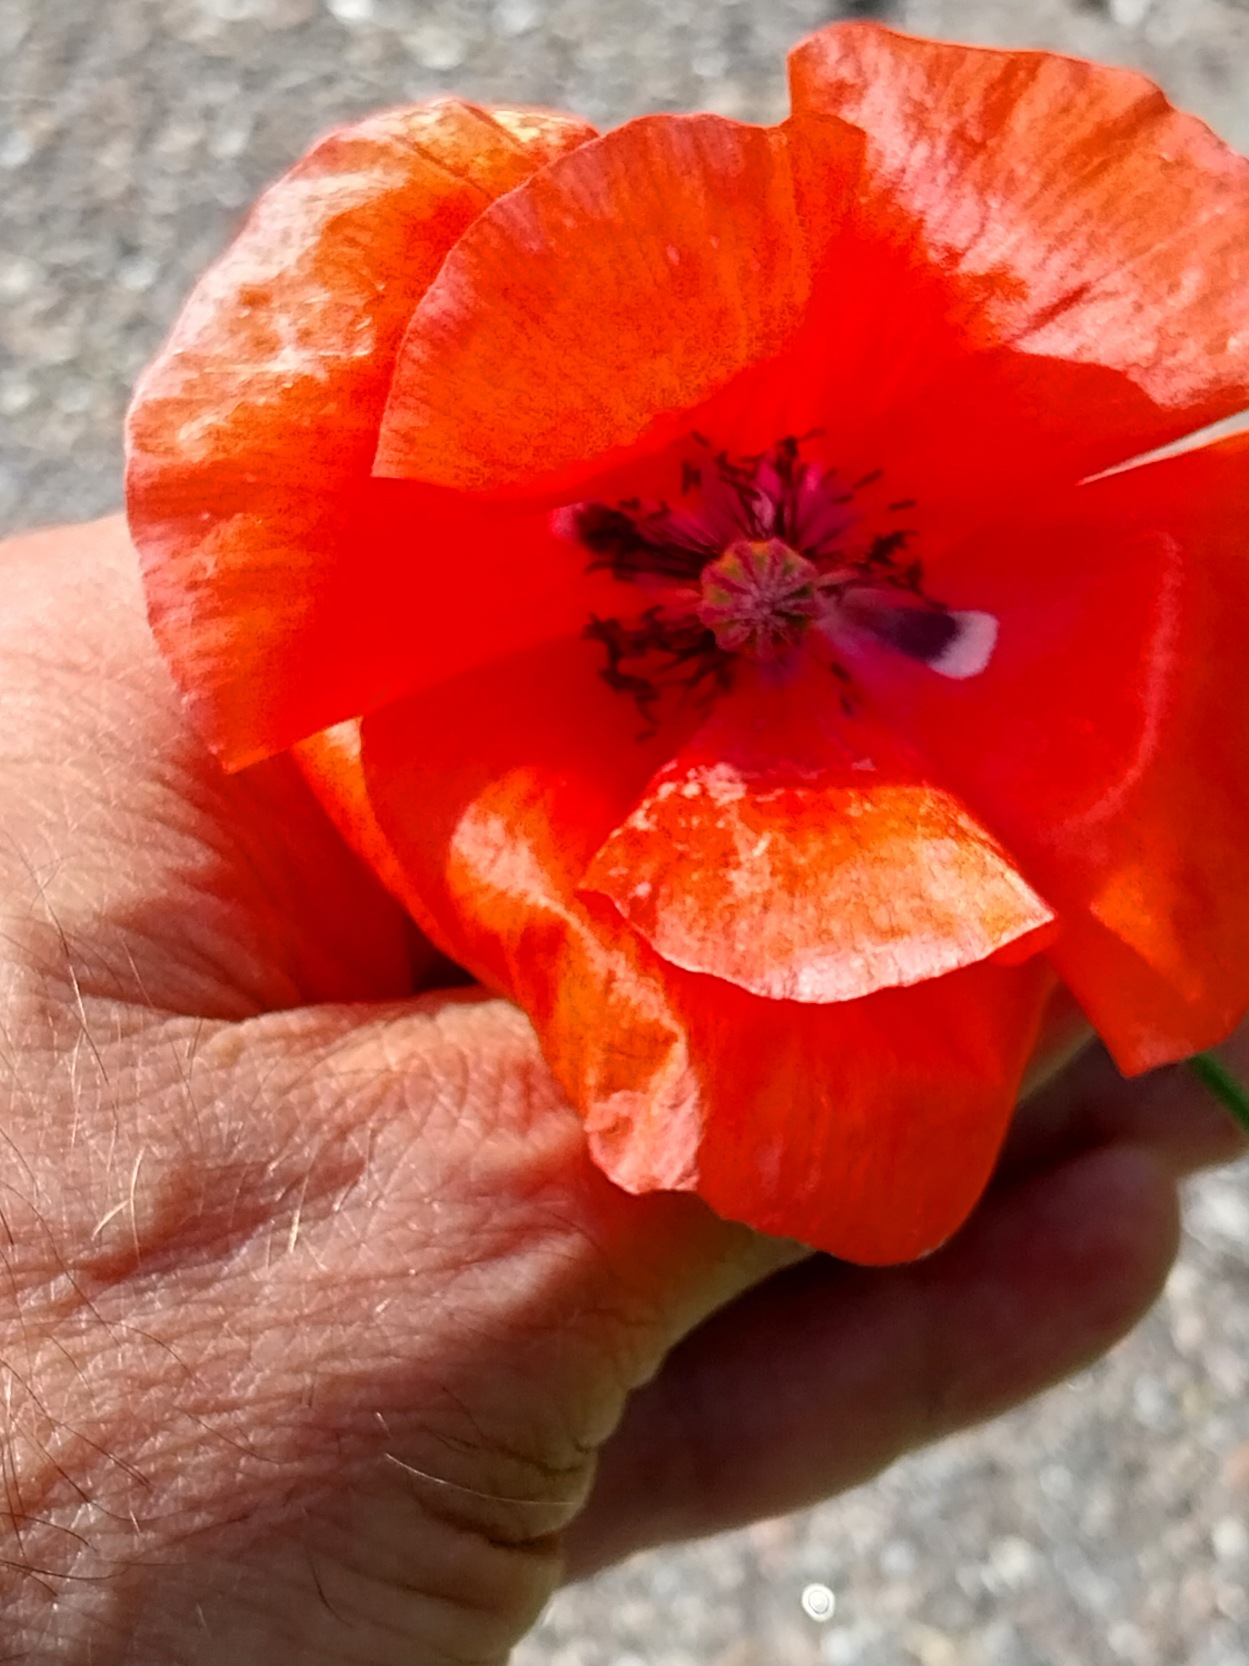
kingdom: Plantae
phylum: Tracheophyta
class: Magnoliopsida
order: Ranunculales
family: Papaveraceae
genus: Papaver
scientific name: Papaver rhoeas
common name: Korn-valmue
